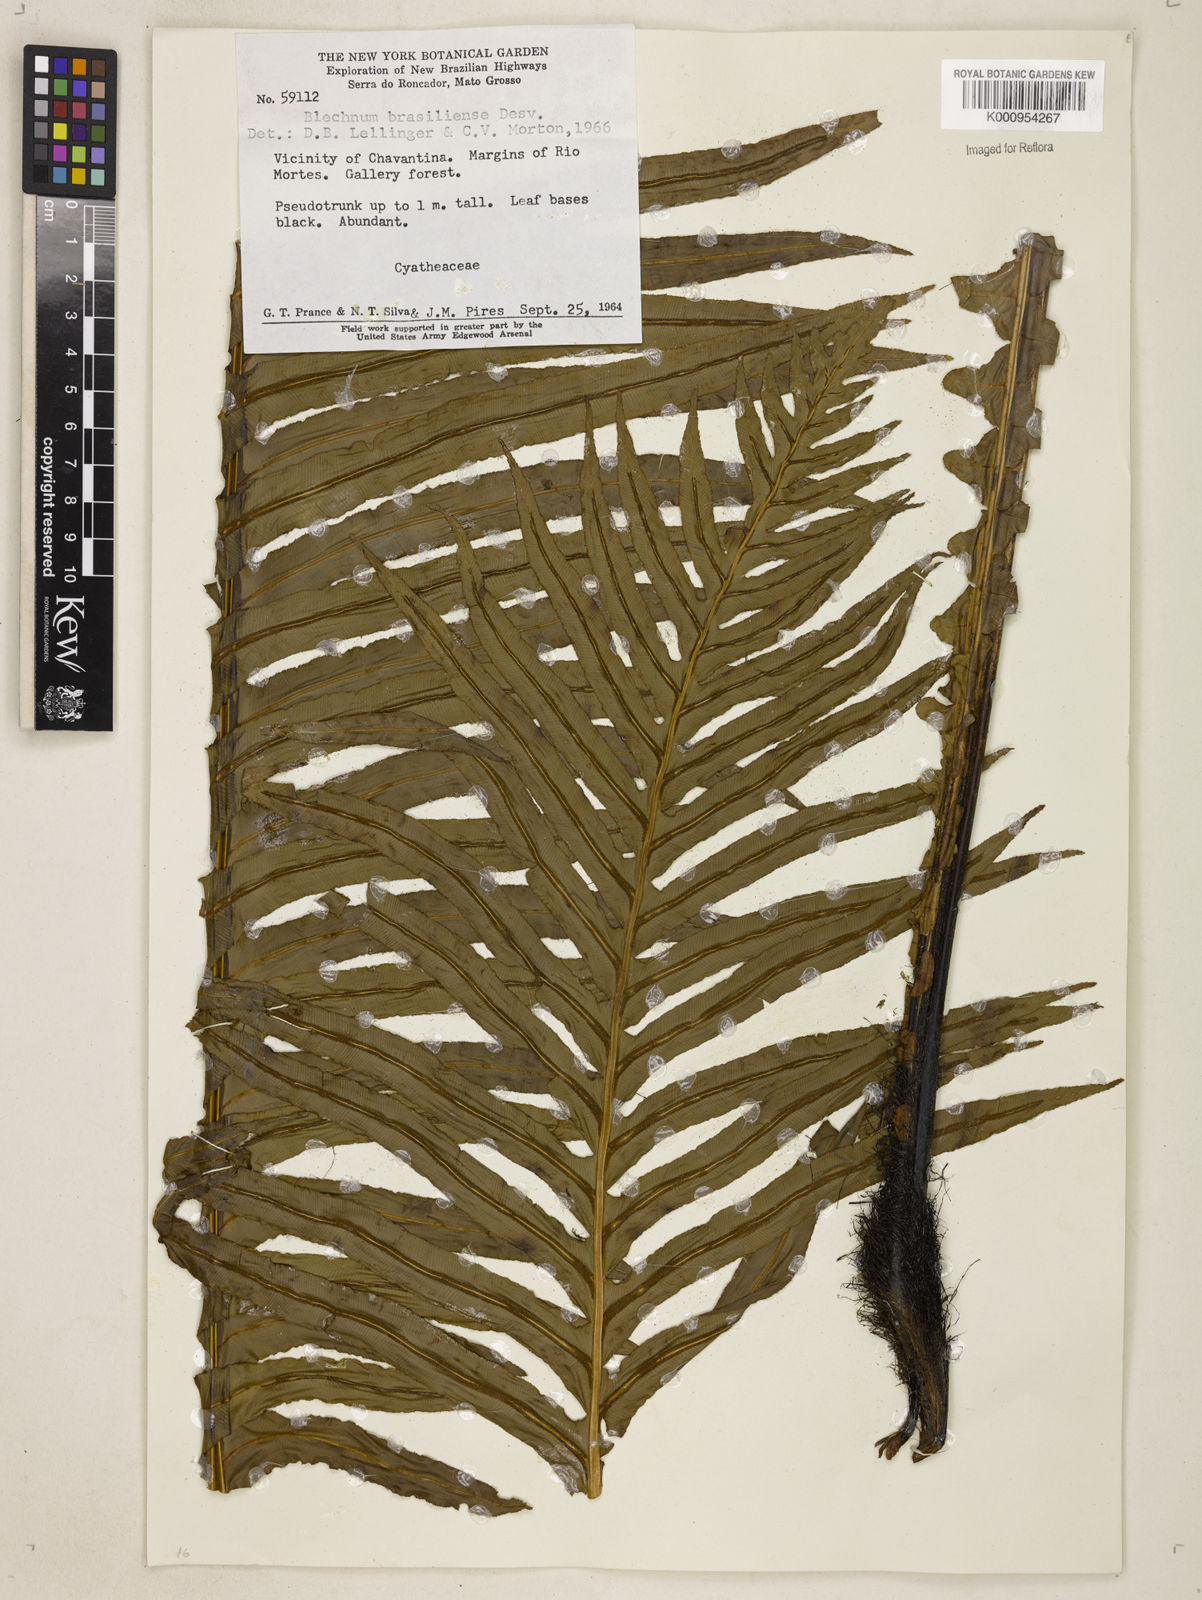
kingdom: Plantae
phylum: Tracheophyta
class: Polypodiopsida
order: Polypodiales
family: Blechnaceae
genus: Neoblechnum
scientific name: Neoblechnum brasiliense
